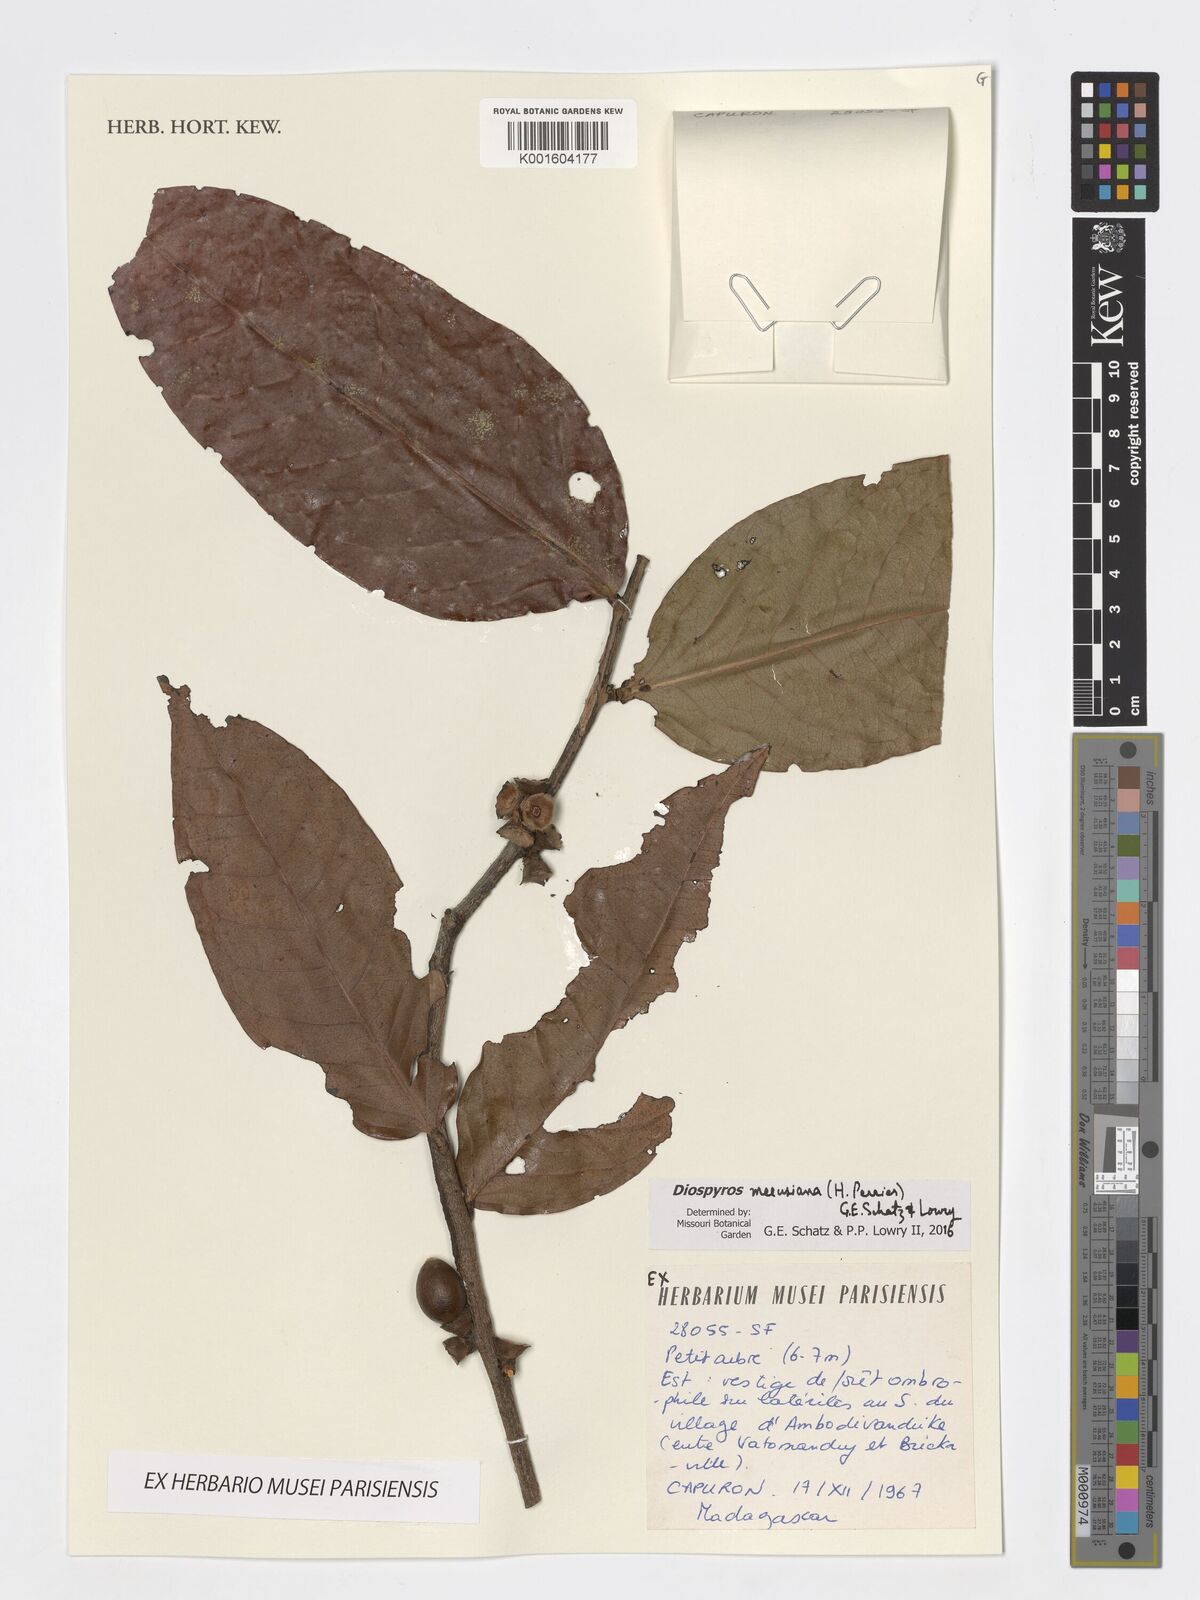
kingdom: Plantae
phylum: Tracheophyta
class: Magnoliopsida
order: Ericales
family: Ebenaceae
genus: Diospyros
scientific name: Diospyros meeusiana
